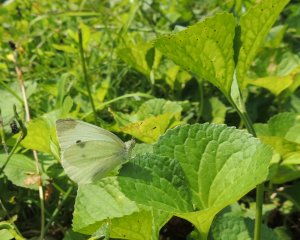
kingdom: Animalia
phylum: Arthropoda
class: Insecta
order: Lepidoptera
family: Pieridae
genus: Pieris
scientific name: Pieris rapae
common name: Cabbage White
